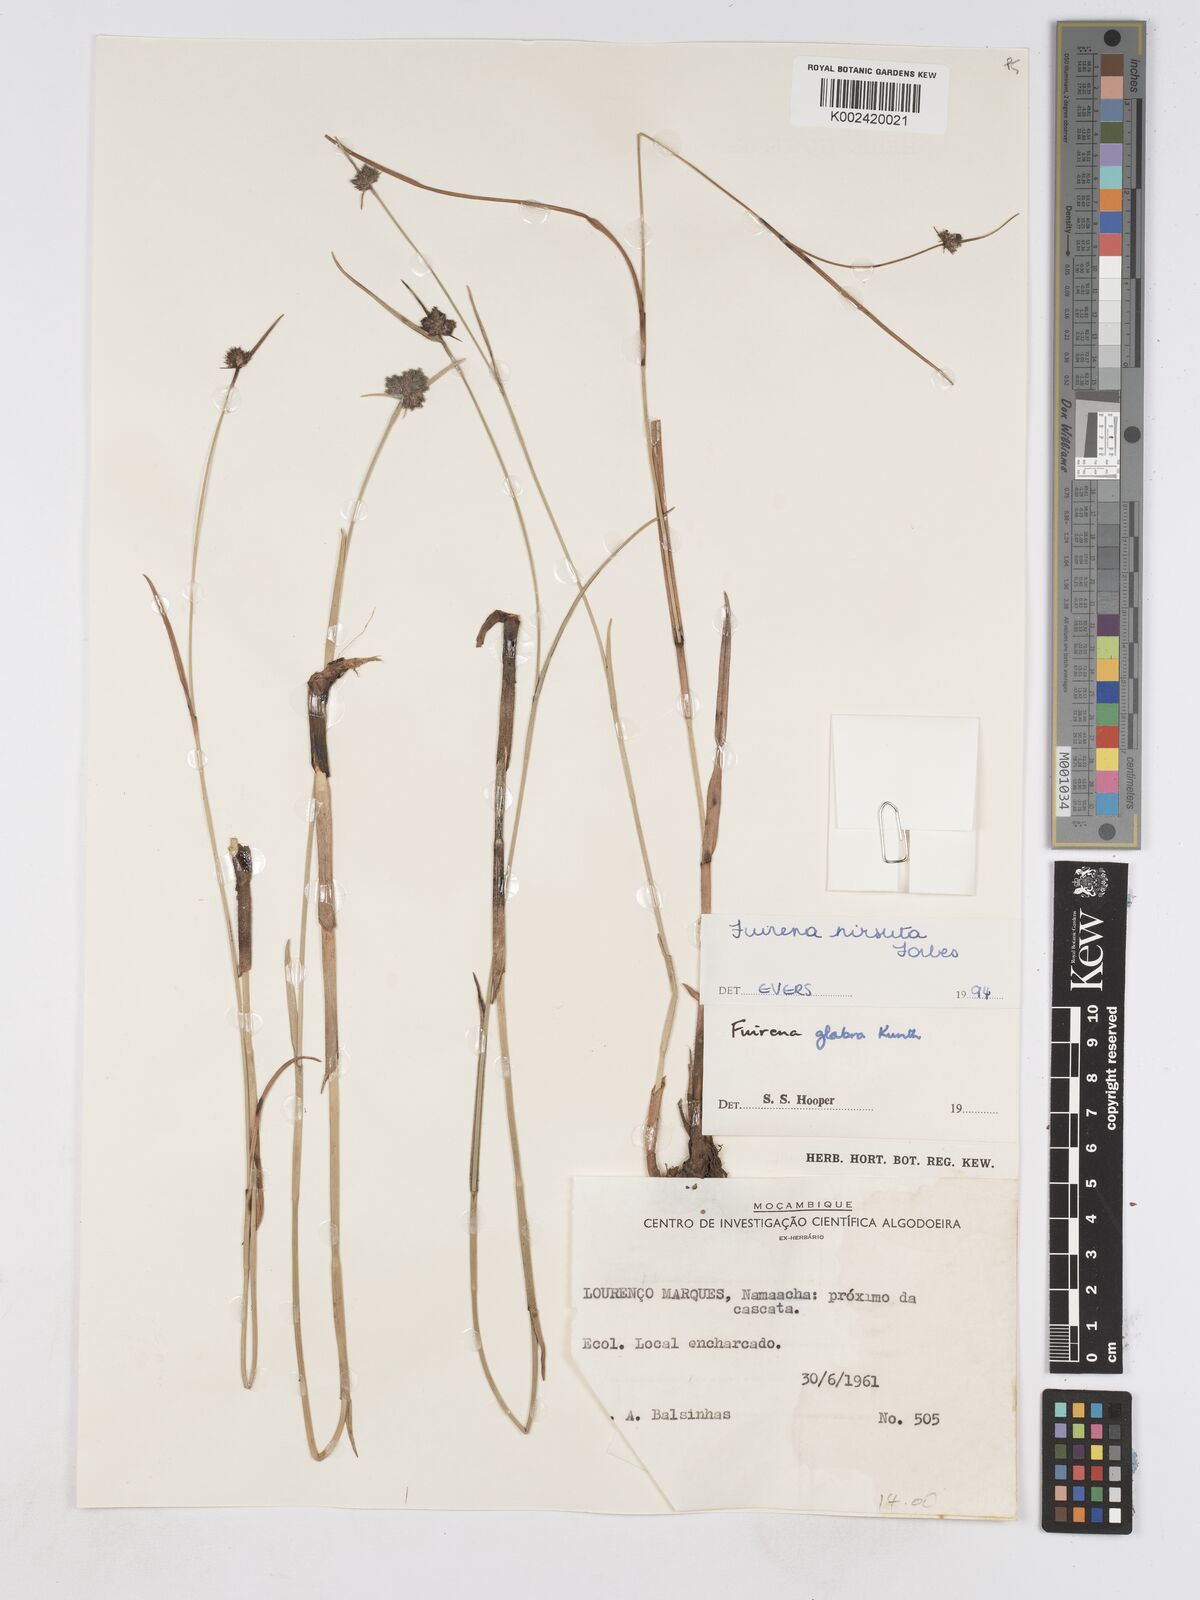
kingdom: Plantae
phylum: Tracheophyta
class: Liliopsida
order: Poales
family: Cyperaceae
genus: Fuirena
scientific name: Fuirena hirsuta
